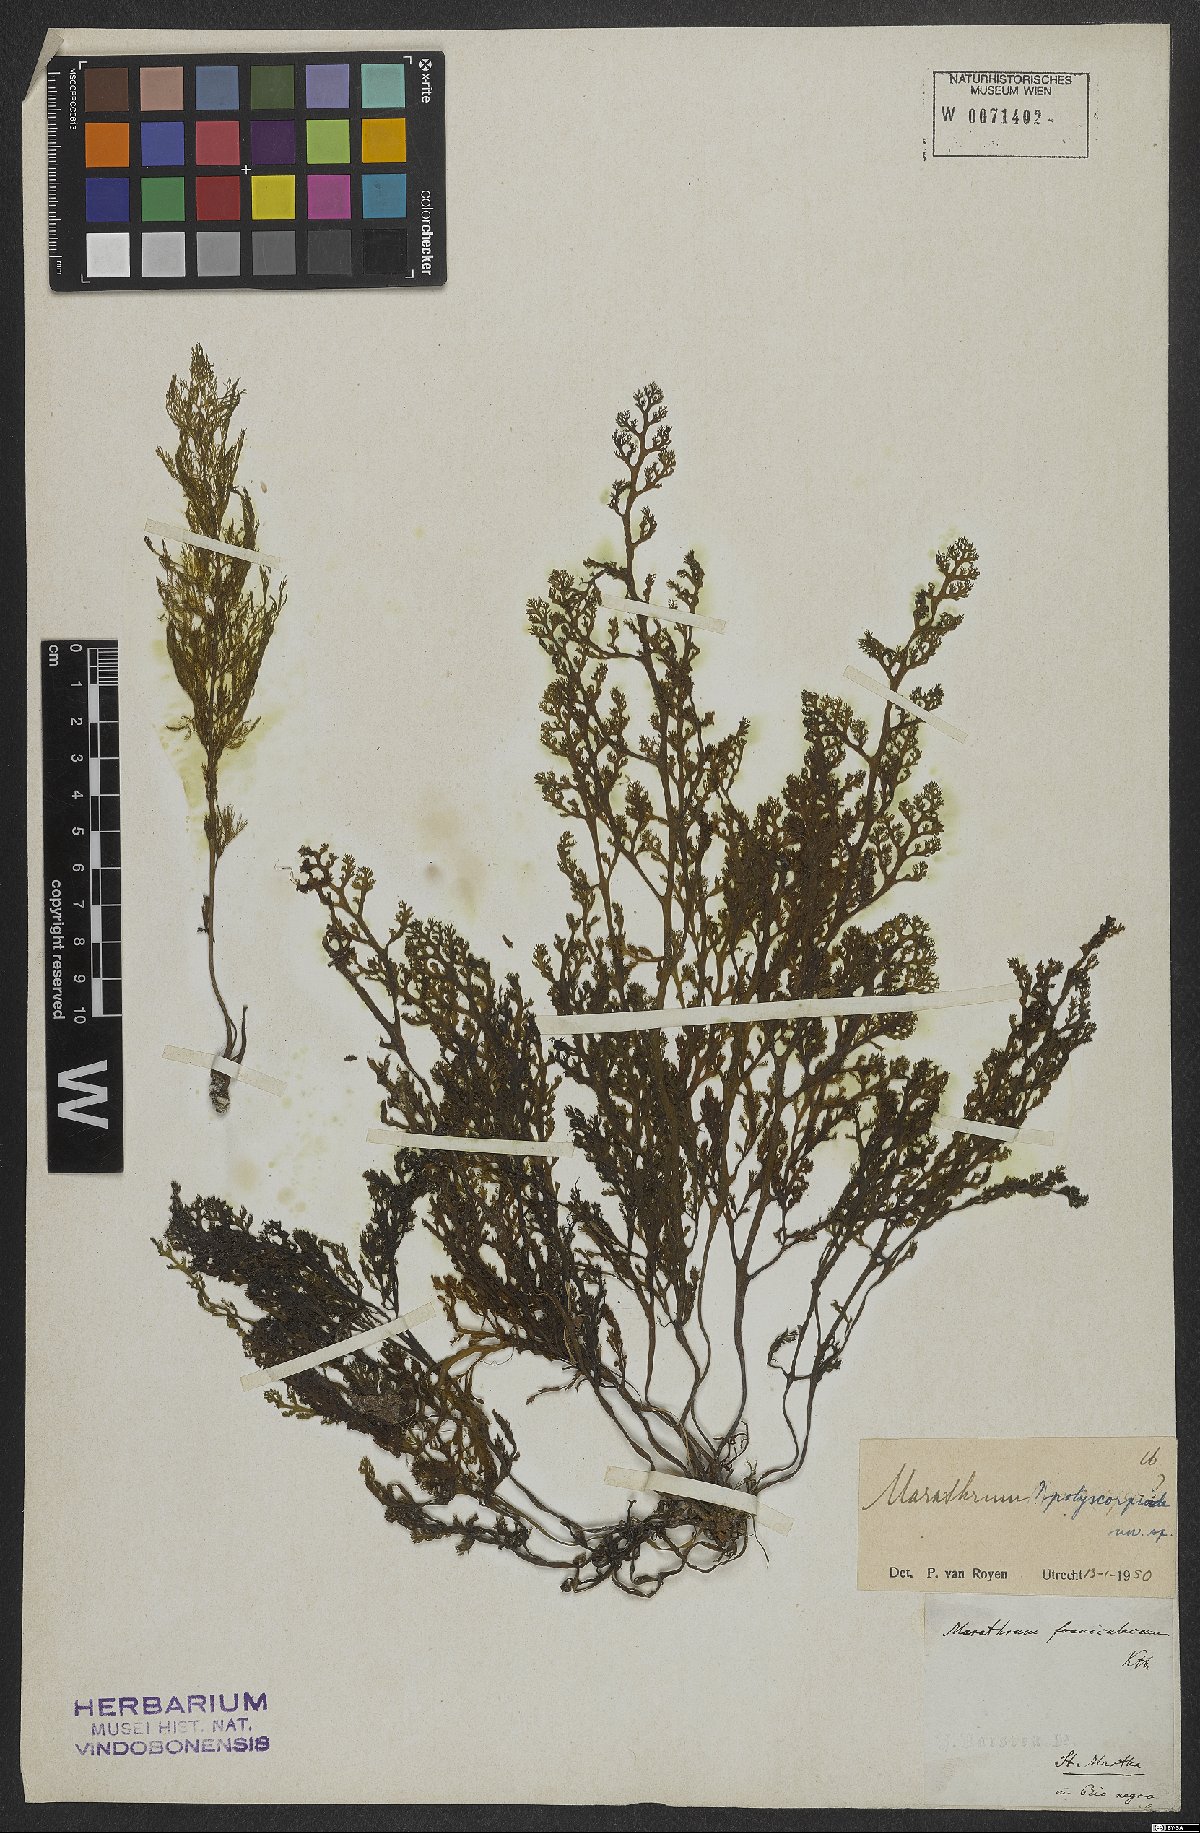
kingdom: Plantae
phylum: Tracheophyta
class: Magnoliopsida
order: Malpighiales
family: Podostemaceae
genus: Marathrum
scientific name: Marathrum
